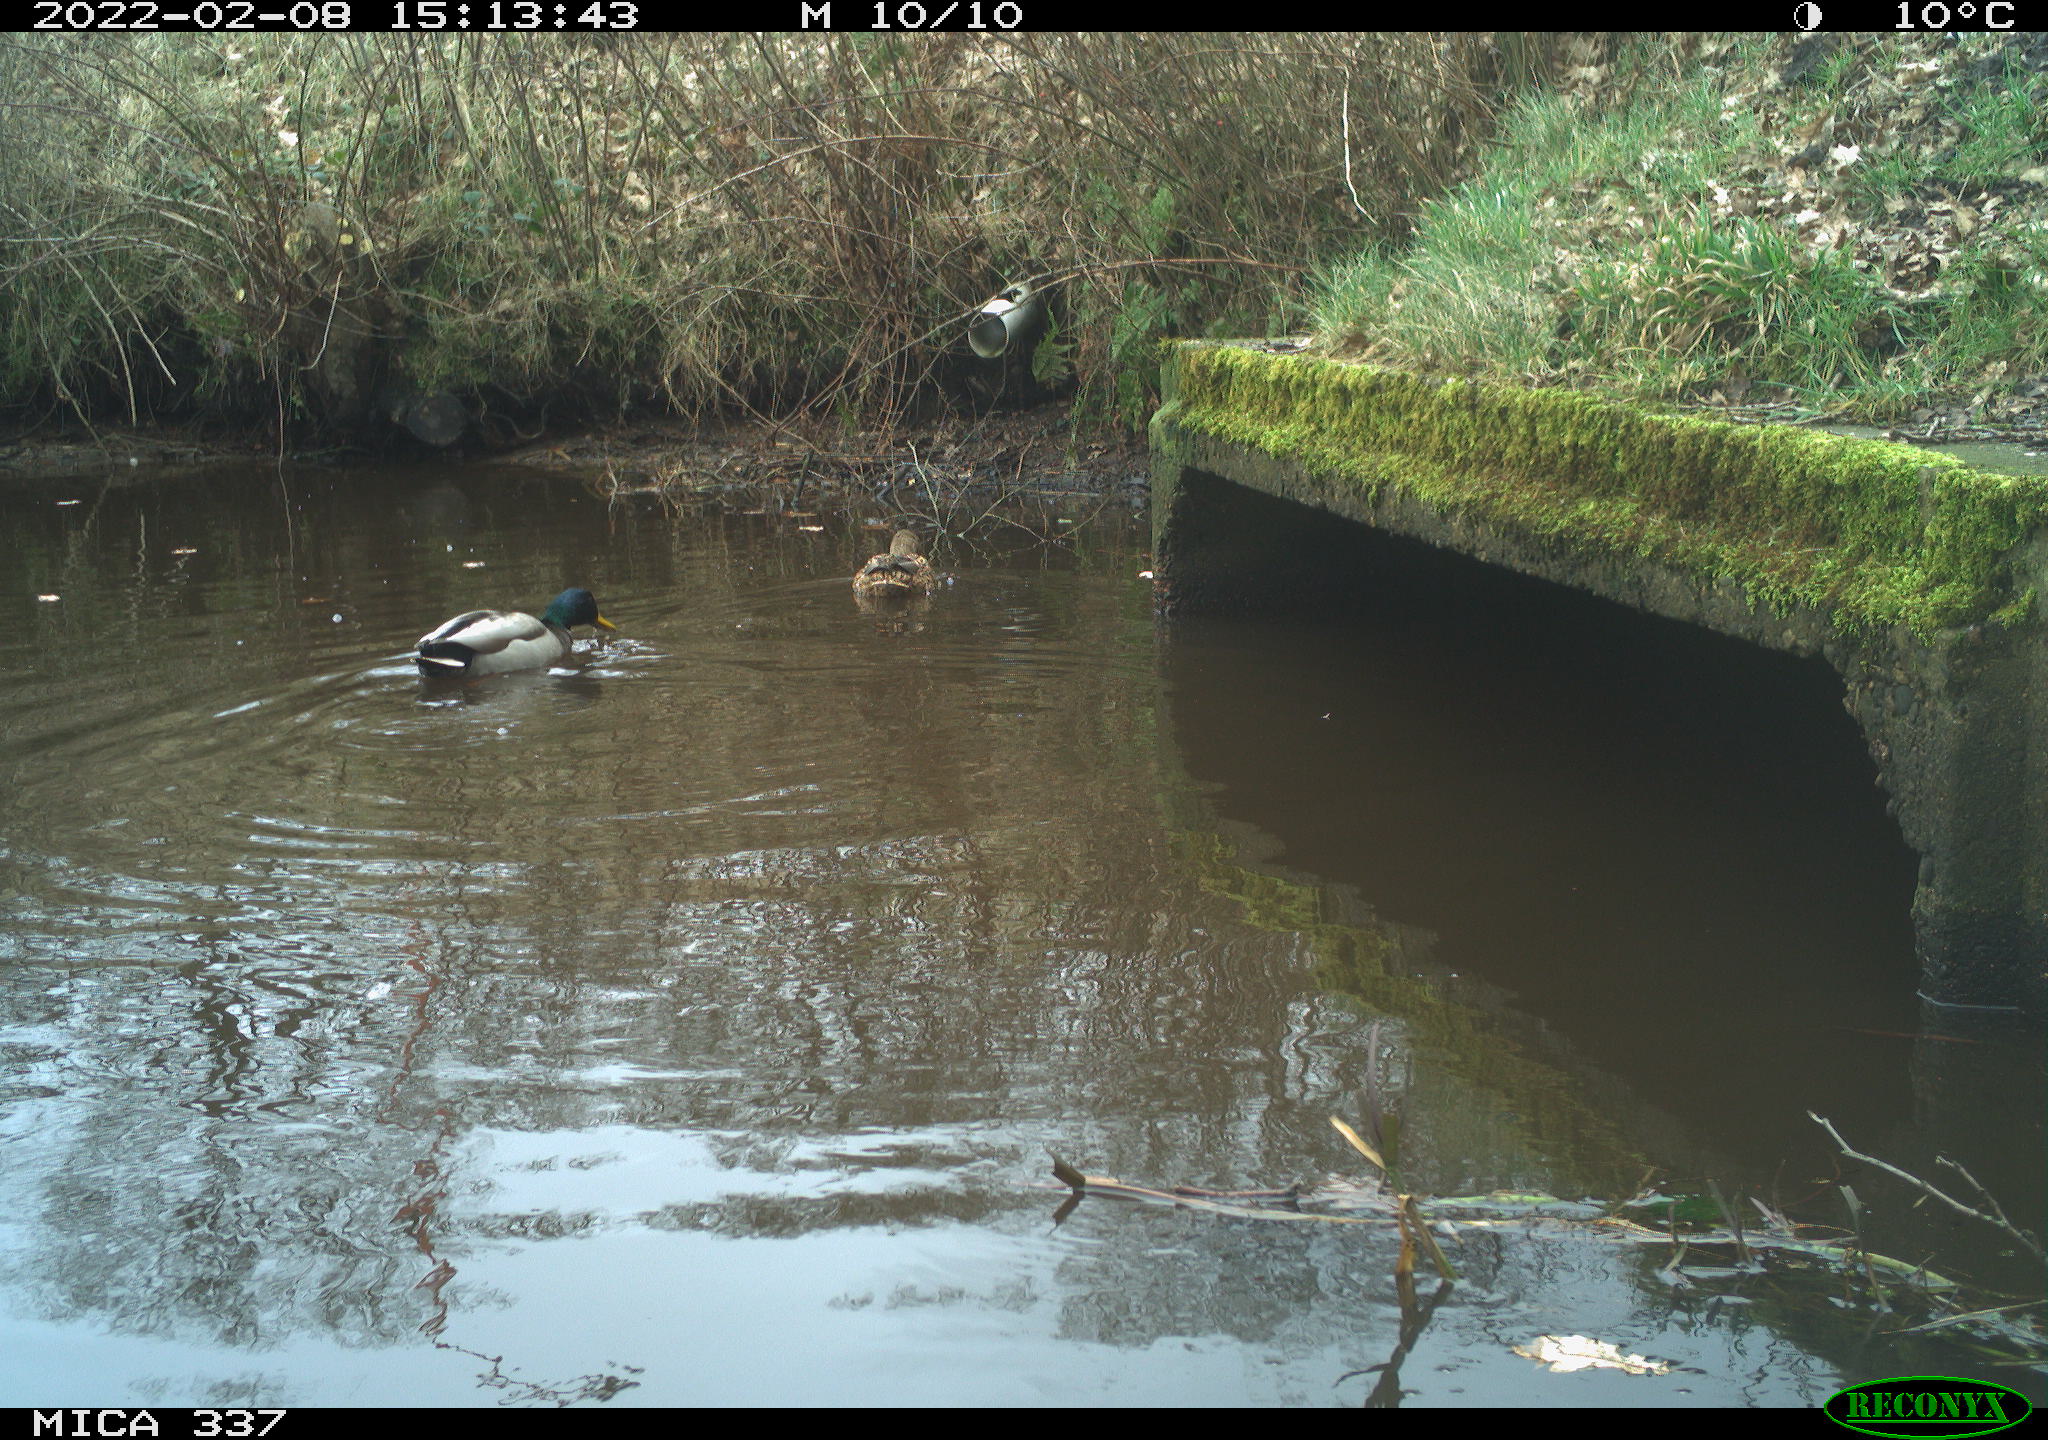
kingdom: Animalia
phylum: Chordata
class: Aves
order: Anseriformes
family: Anatidae
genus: Anas
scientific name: Anas platyrhynchos
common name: Mallard
